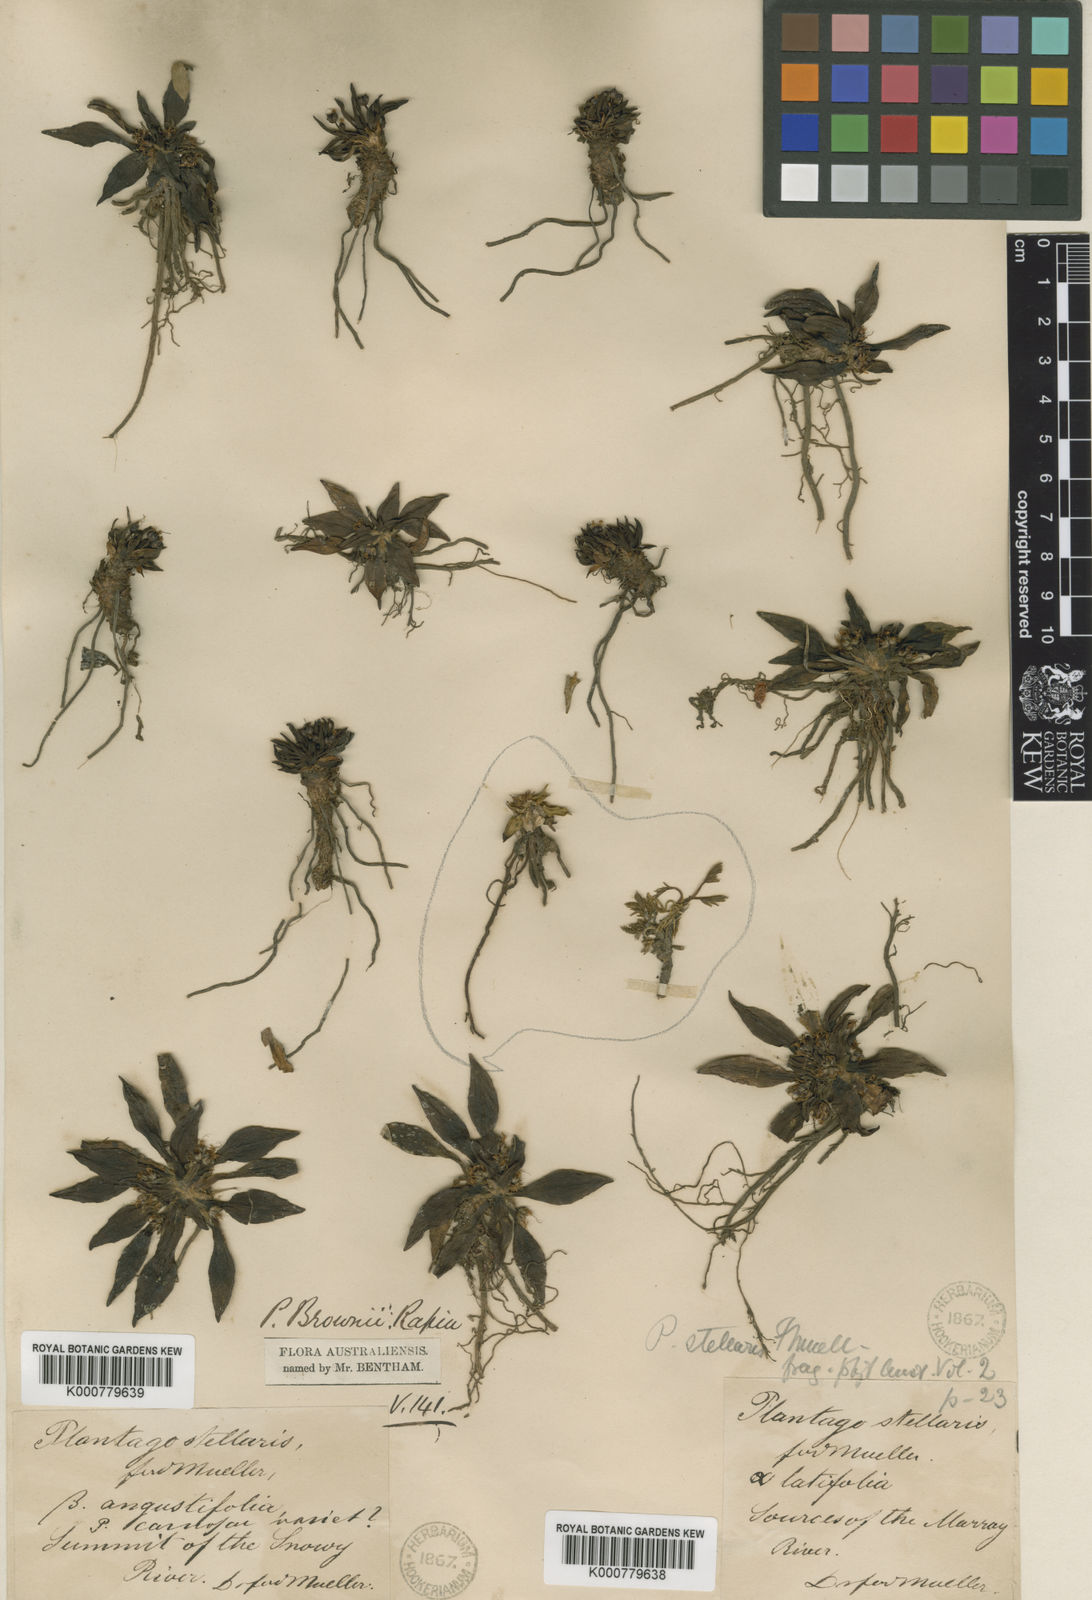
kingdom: Plantae
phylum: Tracheophyta
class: Magnoliopsida
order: Lamiales
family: Plantaginaceae
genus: Plantago
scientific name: Plantago muelleri
